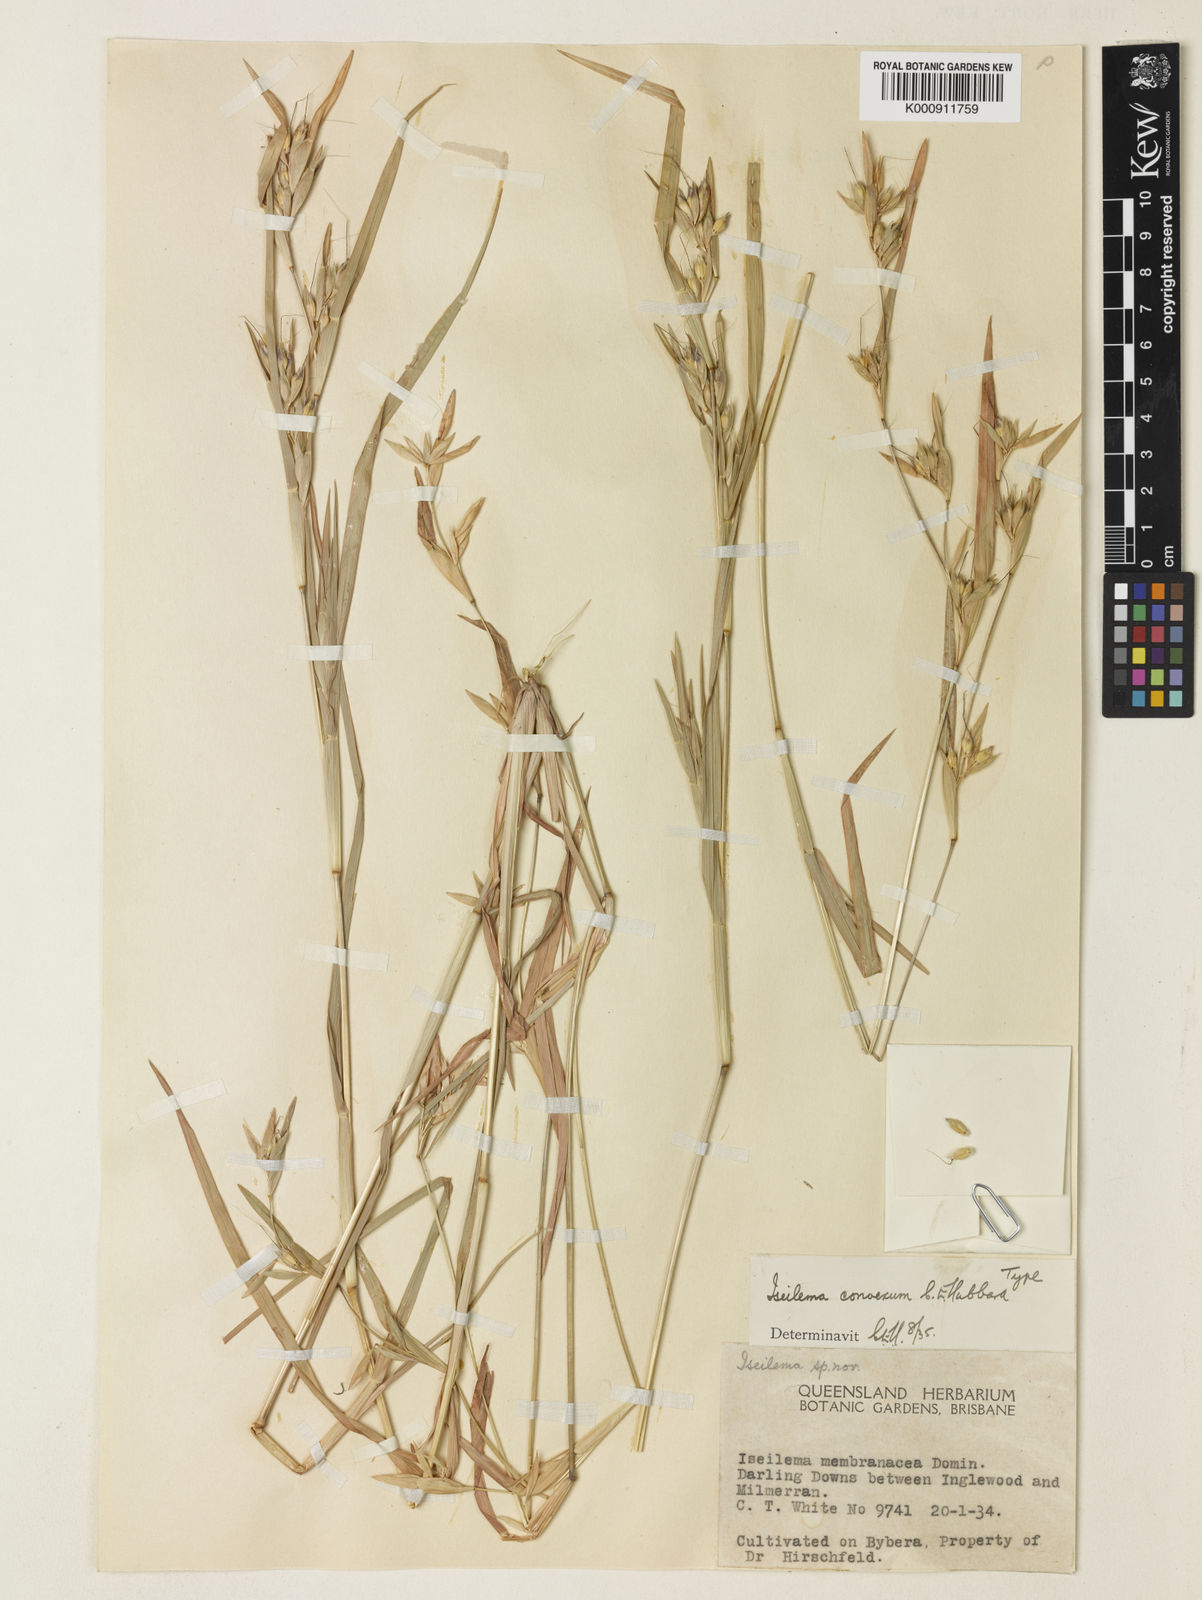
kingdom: Plantae
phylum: Tracheophyta
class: Liliopsida
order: Poales
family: Poaceae
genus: Iseilema
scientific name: Iseilema convexum
